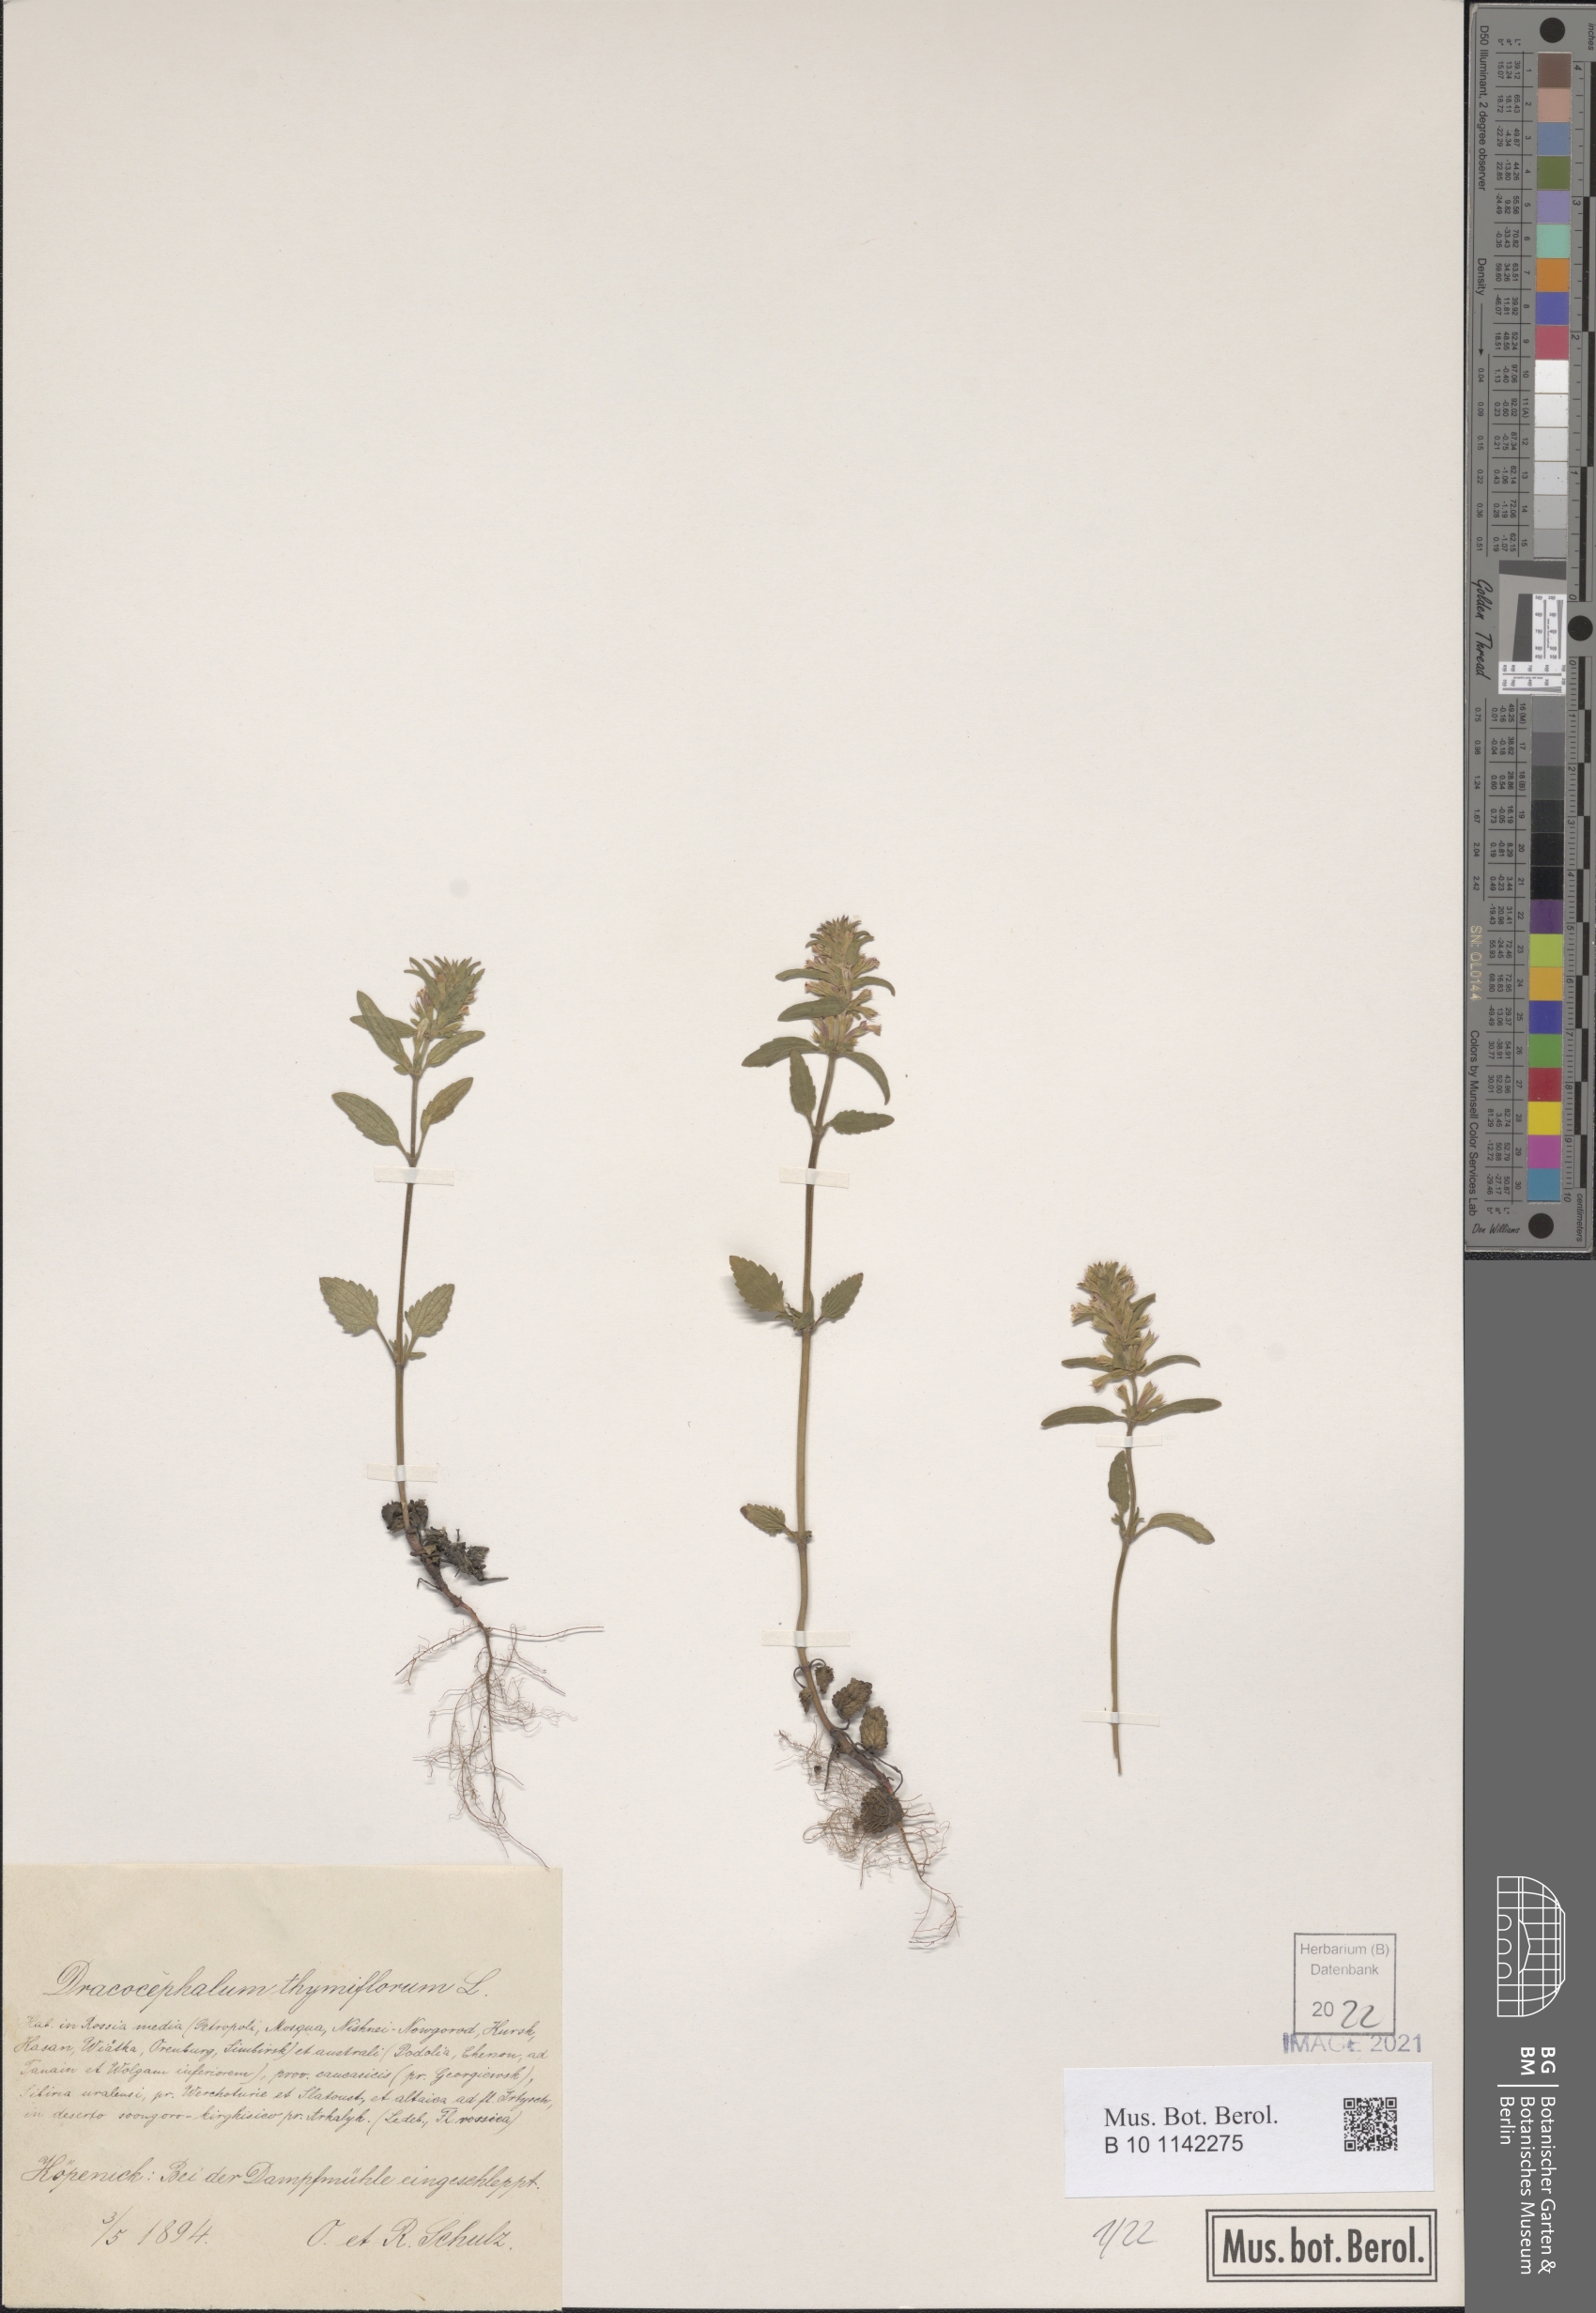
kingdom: Plantae
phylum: Tracheophyta
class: Magnoliopsida
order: Lamiales
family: Lamiaceae
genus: Dracocephalum
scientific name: Dracocephalum thymiflorum
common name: Thymeleaf dragonhead
